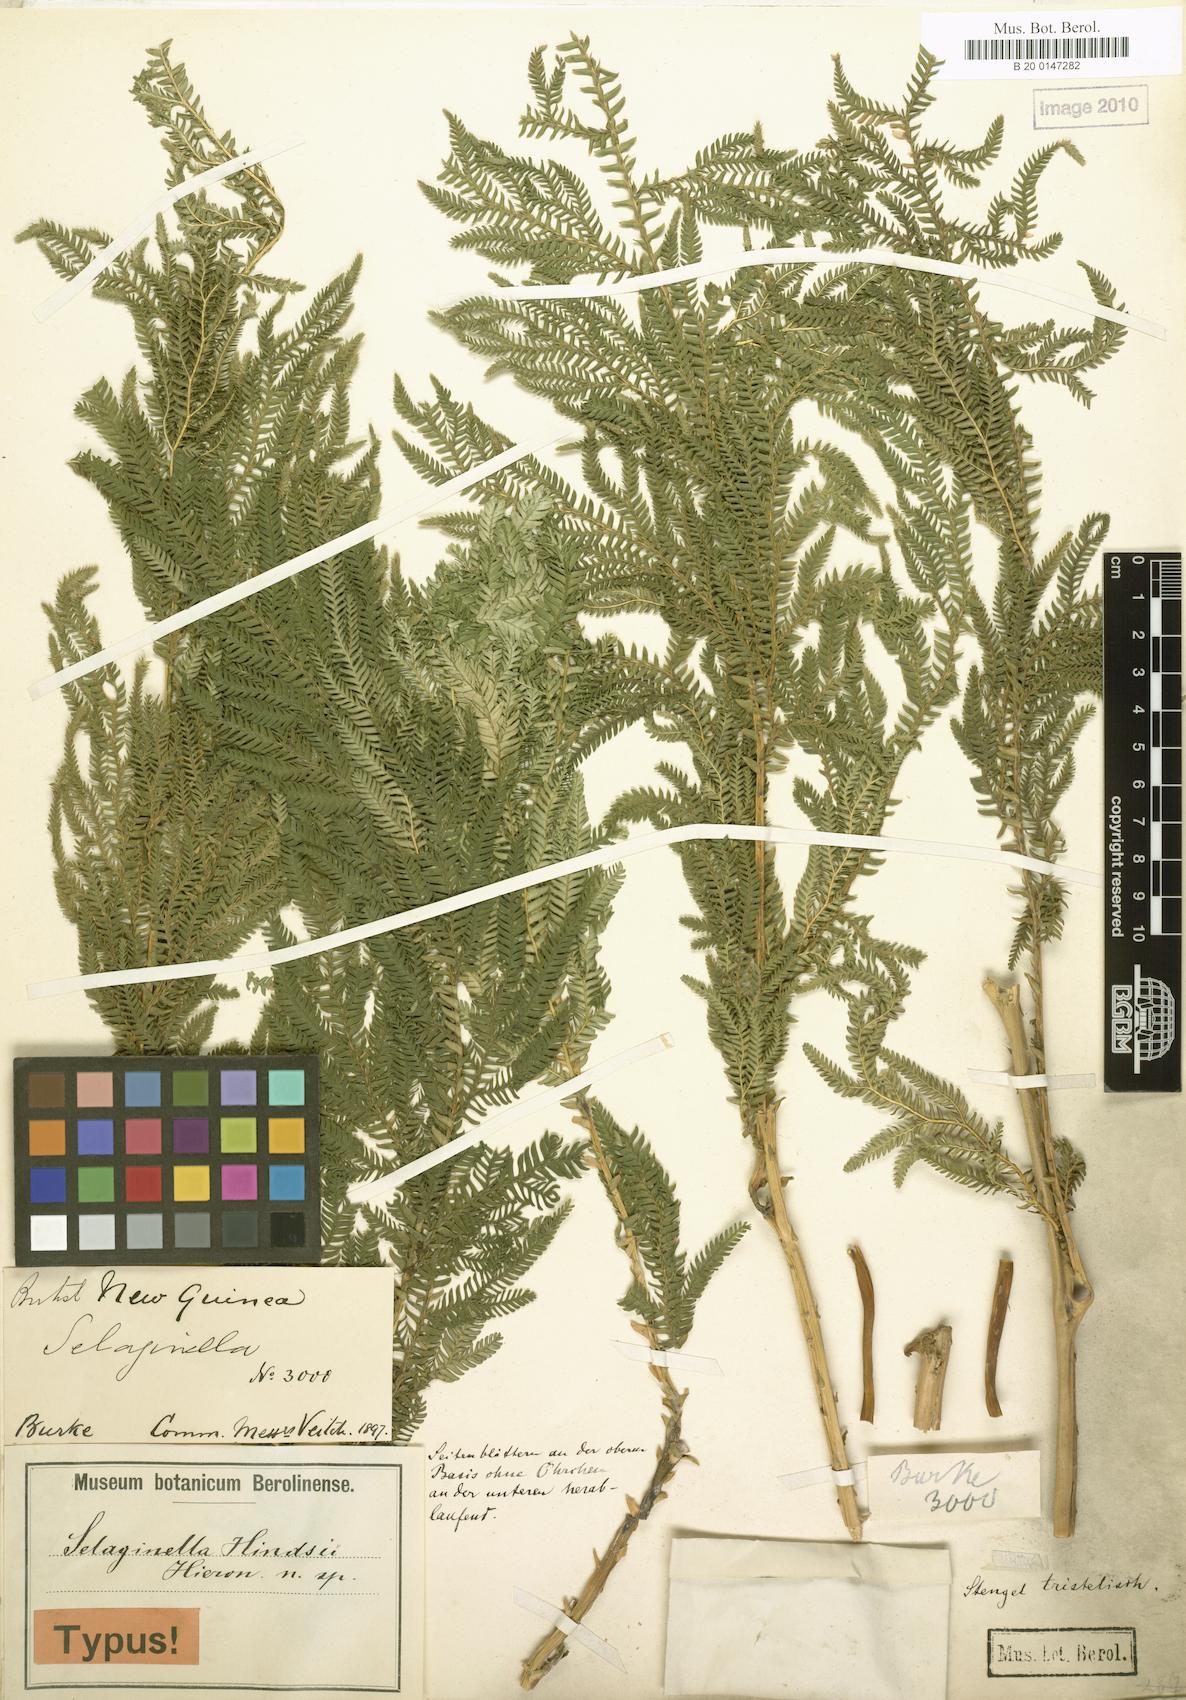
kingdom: Plantae
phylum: Tracheophyta
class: Lycopodiopsida
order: Selaginellales
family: Selaginellaceae
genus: Selaginella
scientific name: Selaginella hindsii
